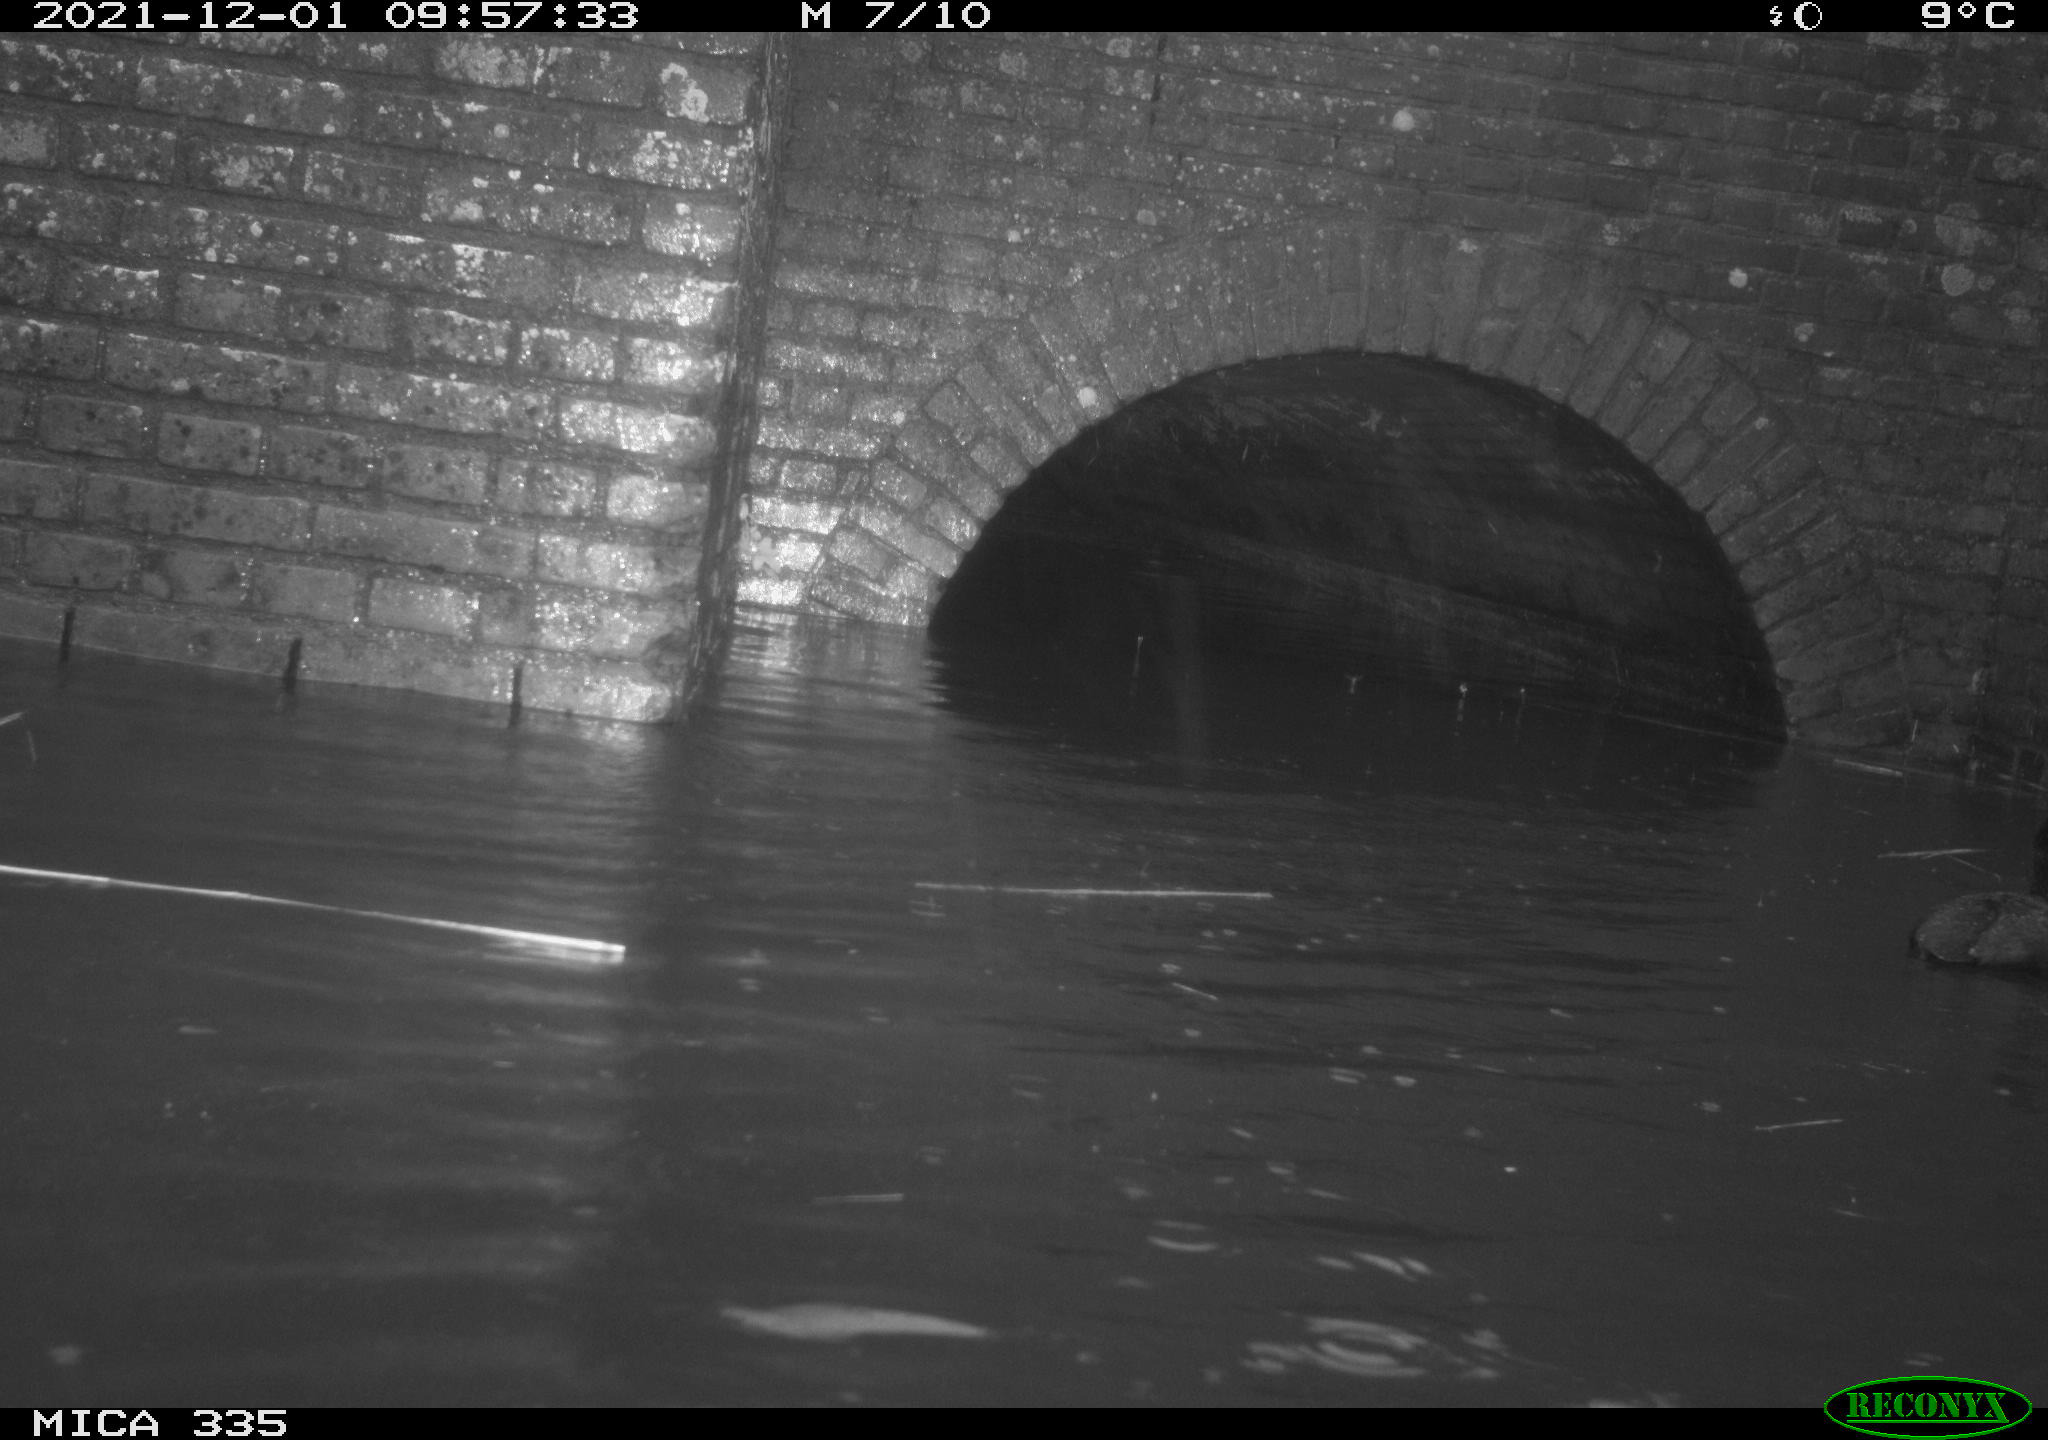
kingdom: Animalia
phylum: Chordata
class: Aves
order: Suliformes
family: Phalacrocoracidae
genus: Phalacrocorax
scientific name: Phalacrocorax carbo
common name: Great cormorant
